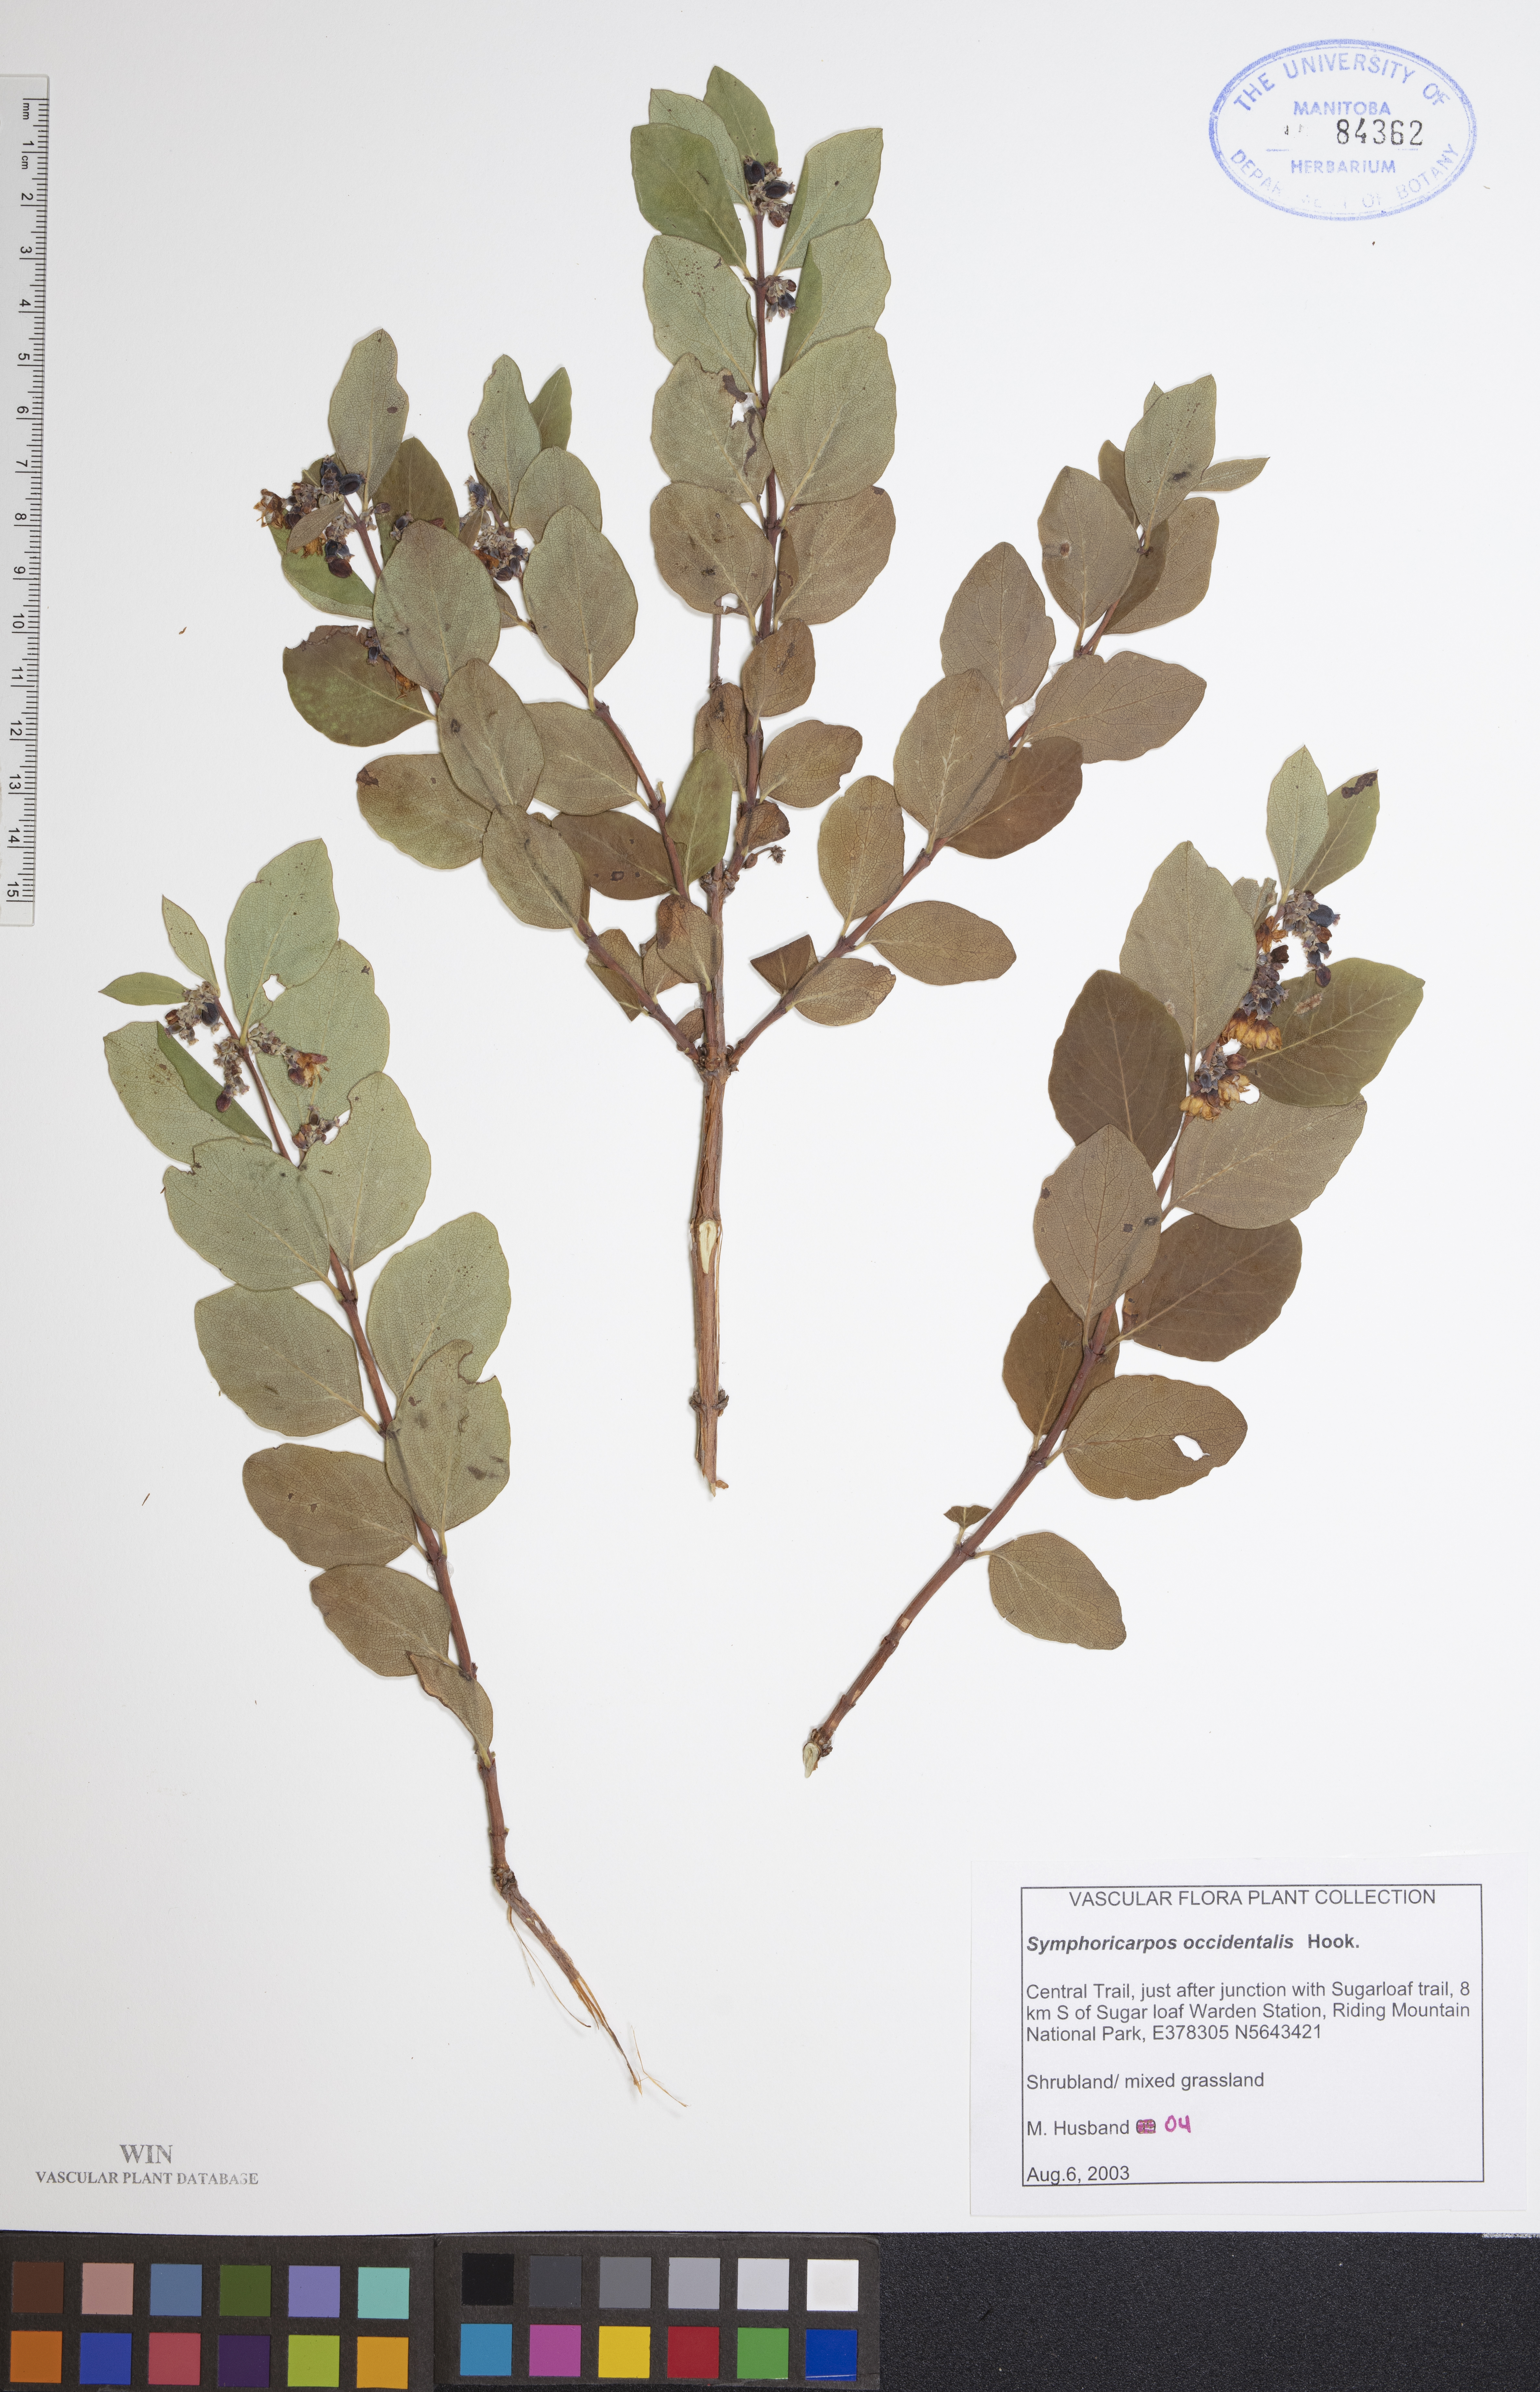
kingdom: Plantae
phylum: Tracheophyta
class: Magnoliopsida
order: Dipsacales
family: Caprifoliaceae
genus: Symphoricarpos
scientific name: Symphoricarpos occidentalis
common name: Wolfberry
